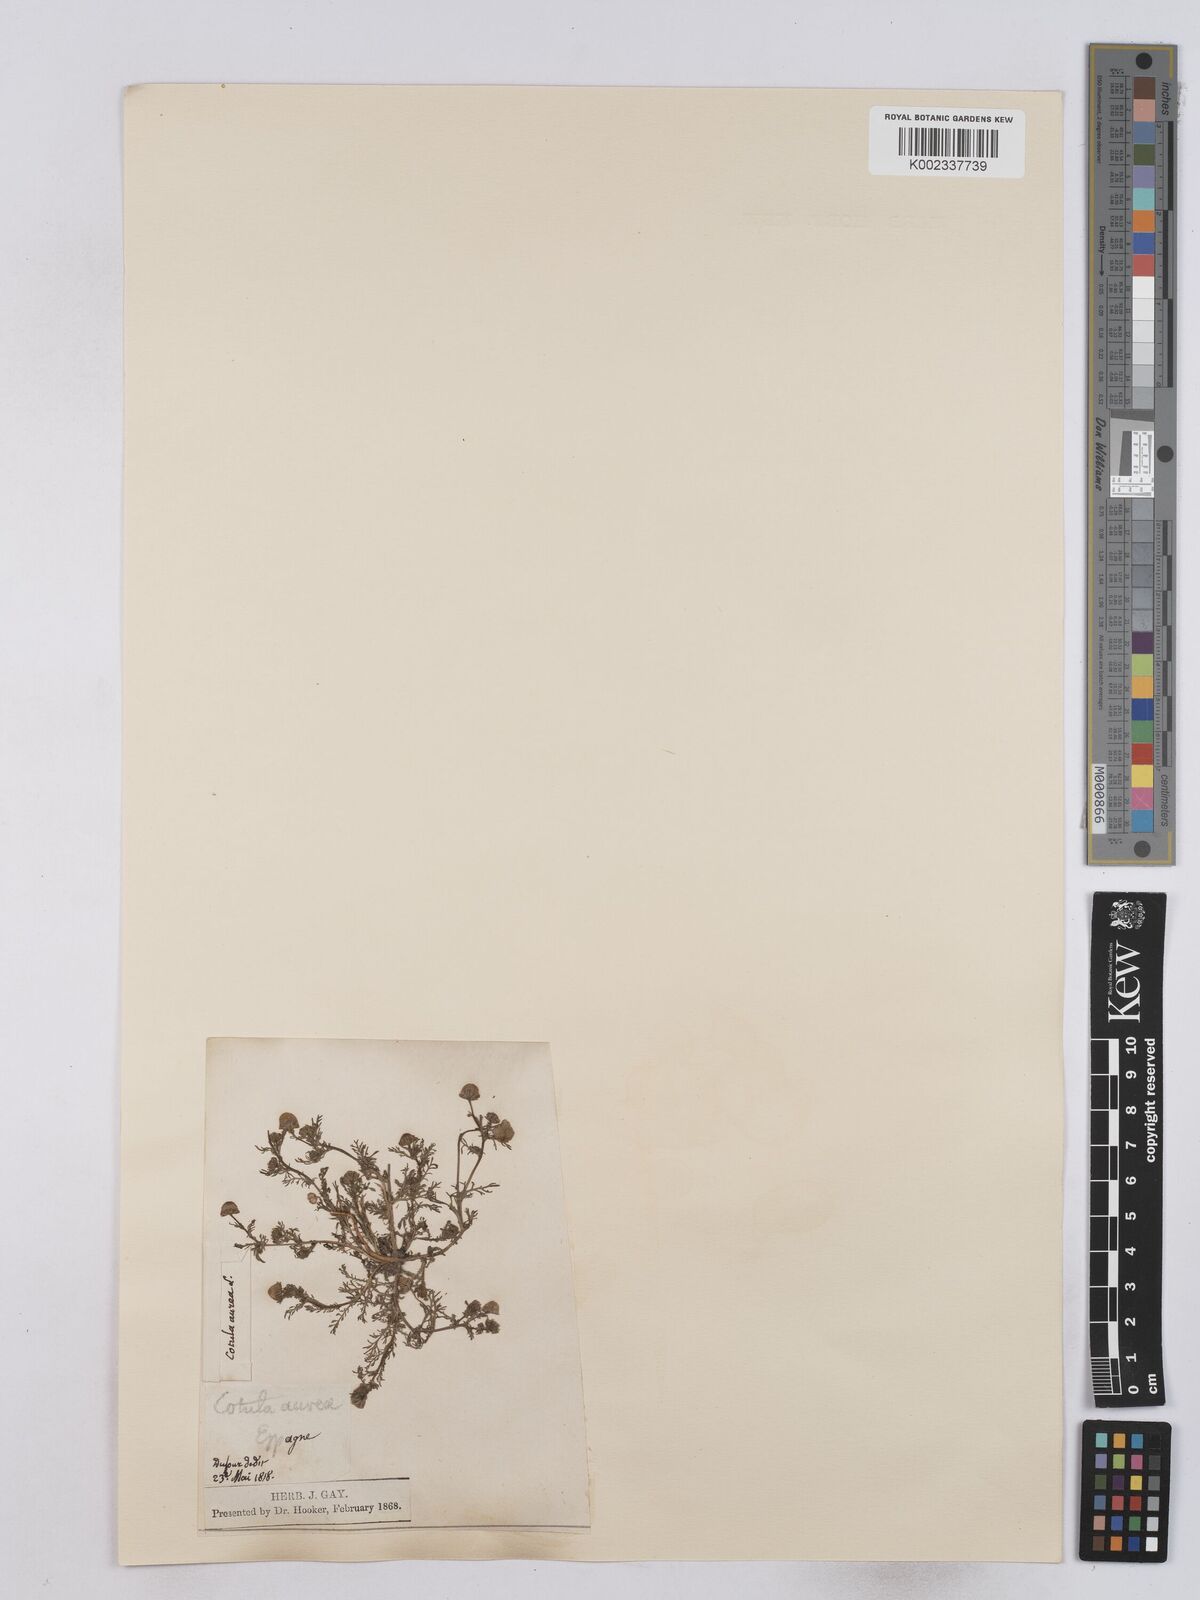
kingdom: Plantae
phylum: Tracheophyta
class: Magnoliopsida
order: Asterales
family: Asteraceae
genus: Matricaria
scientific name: Matricaria aurea
